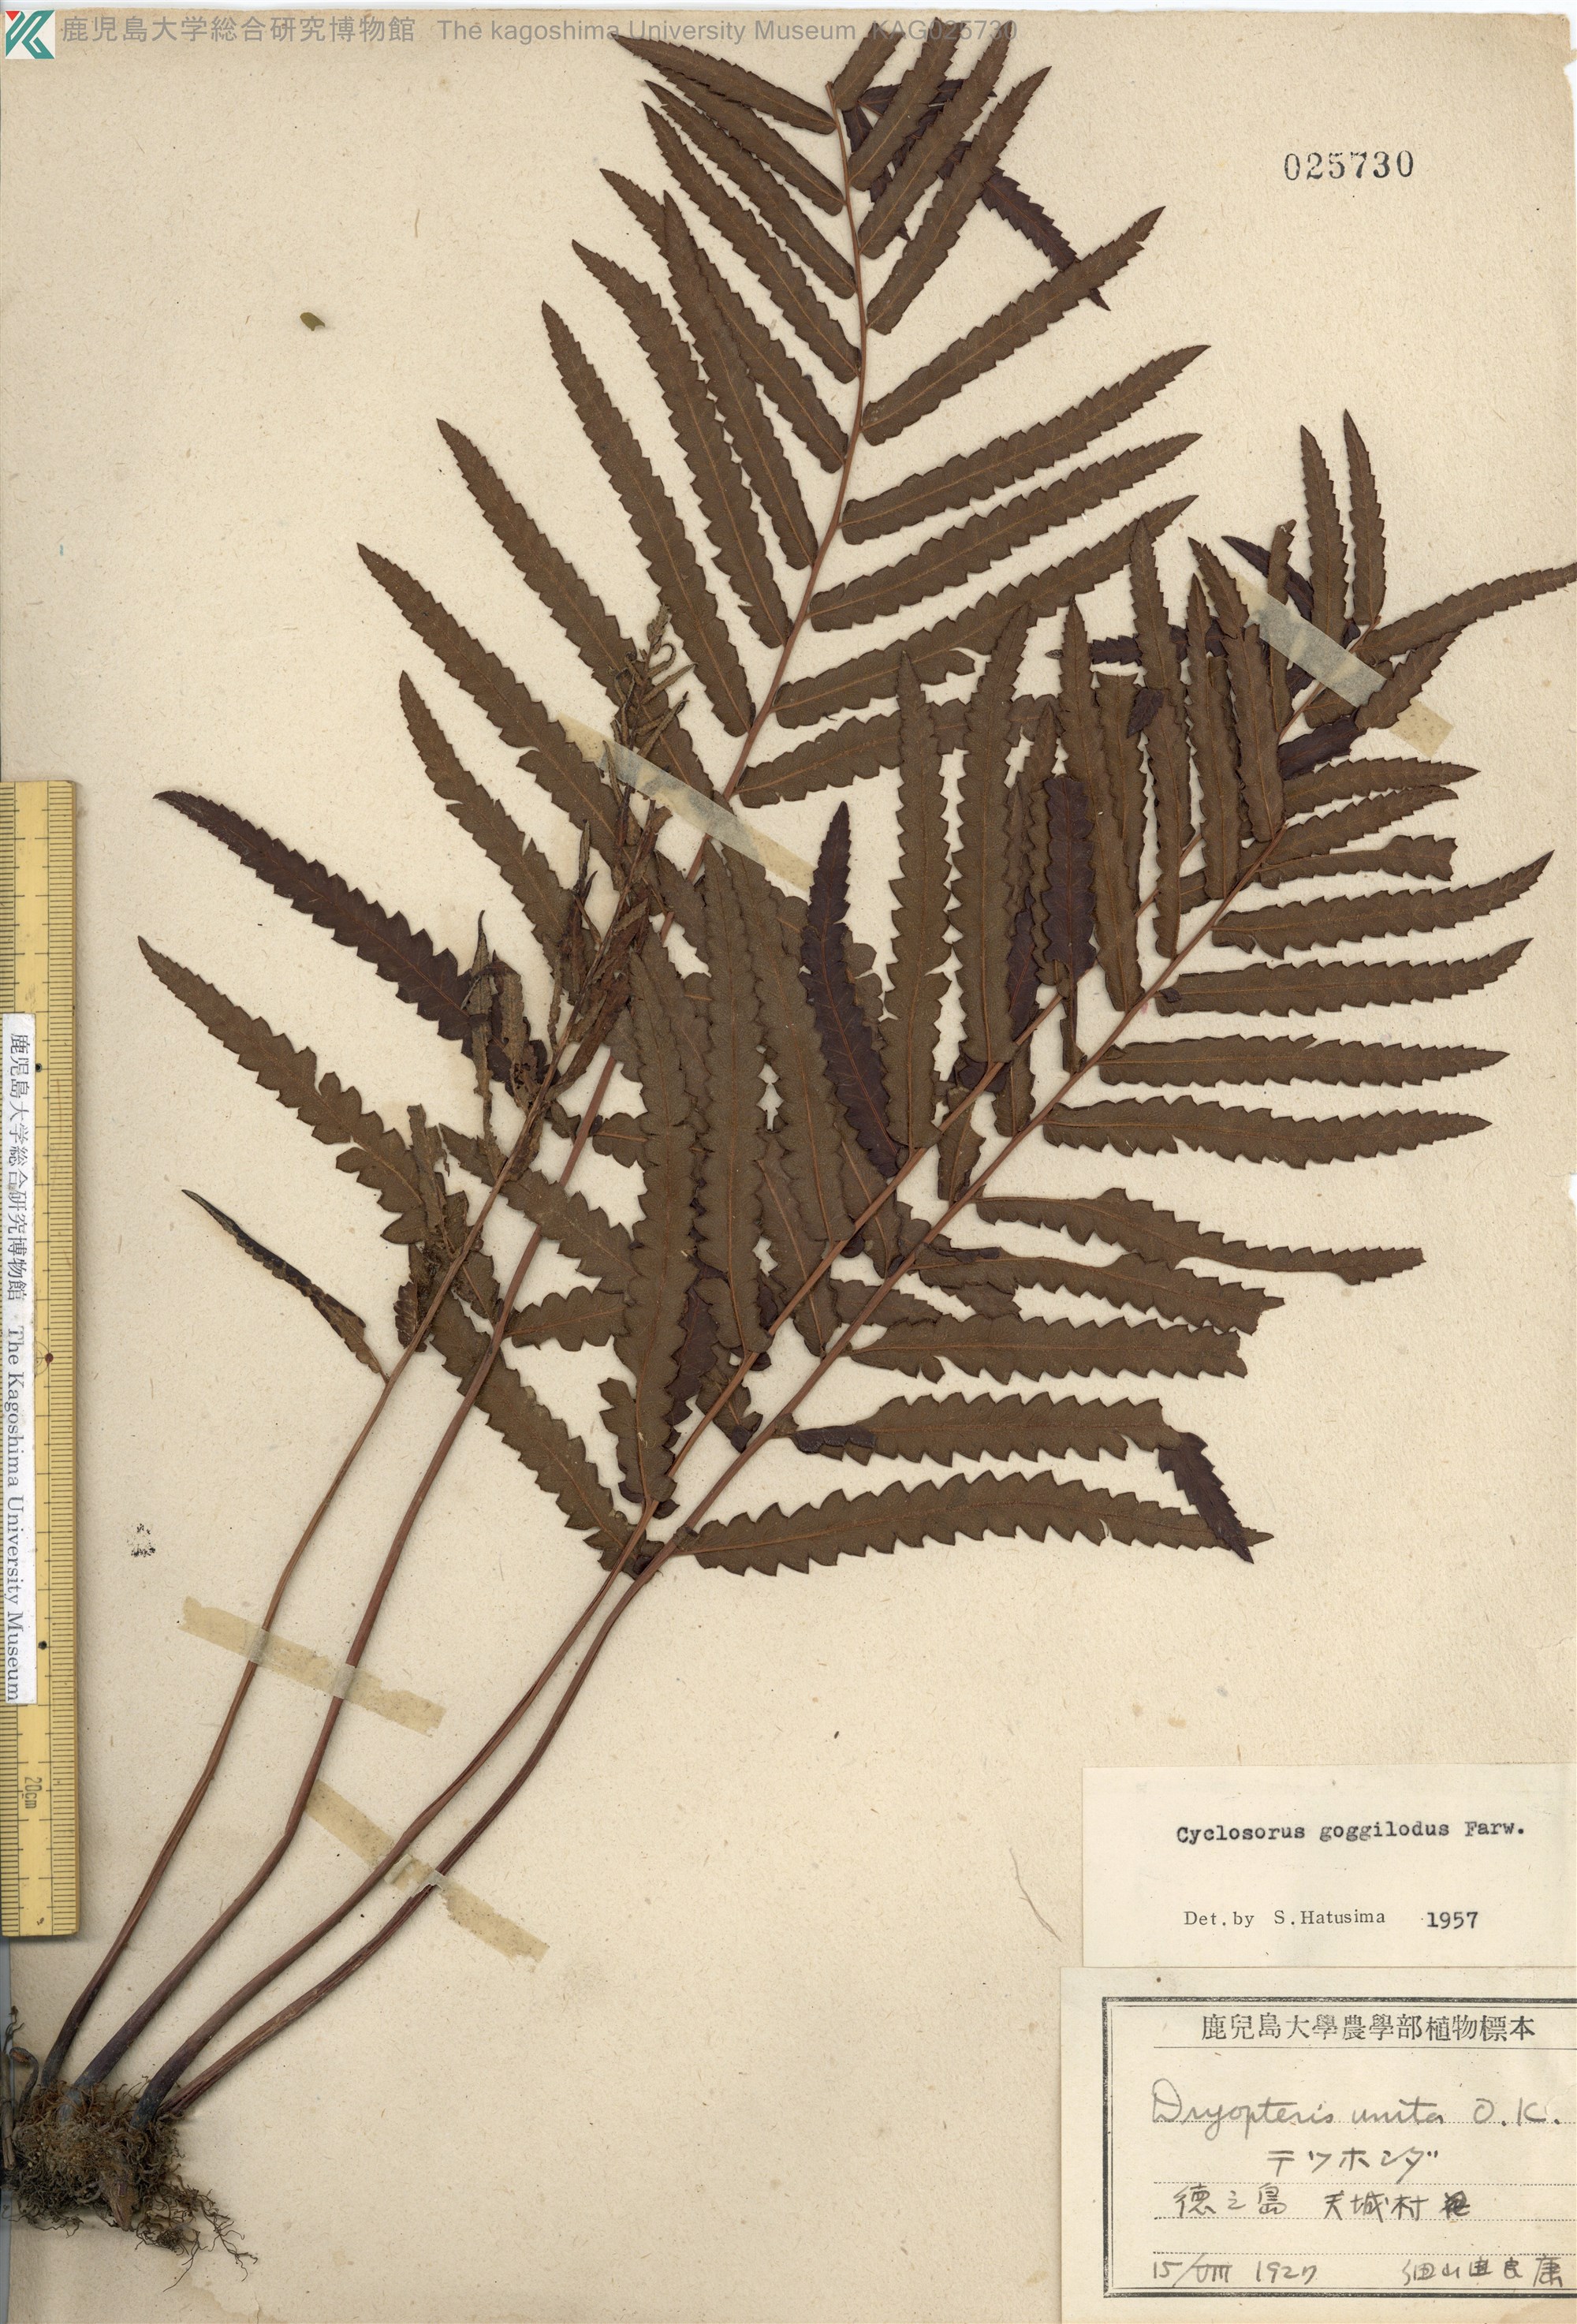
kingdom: Plantae
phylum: Tracheophyta
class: Polypodiopsida
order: Polypodiales
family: Thelypteridaceae
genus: Cyclosorus
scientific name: Cyclosorus interruptus
